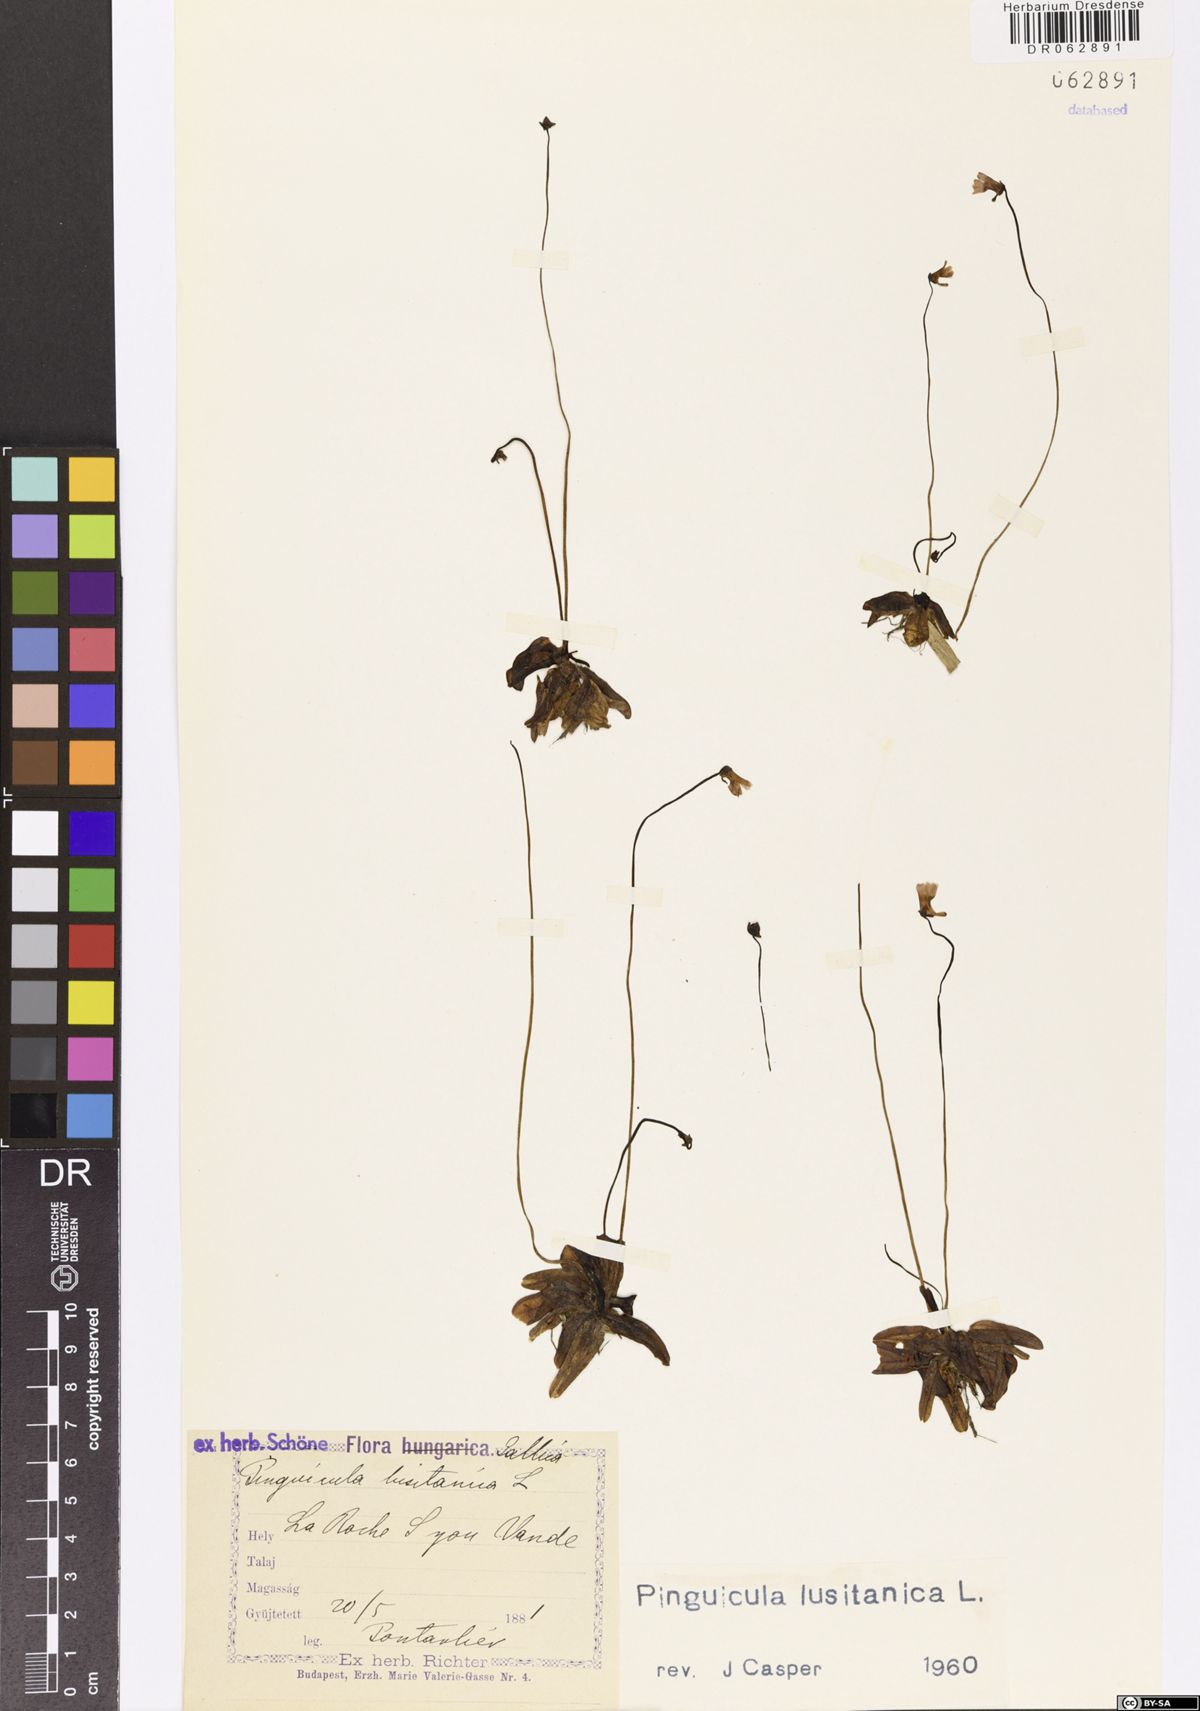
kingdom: Plantae
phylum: Tracheophyta
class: Magnoliopsida
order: Lamiales
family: Lentibulariaceae
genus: Pinguicula
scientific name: Pinguicula lusitanica
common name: Pale butterwort
